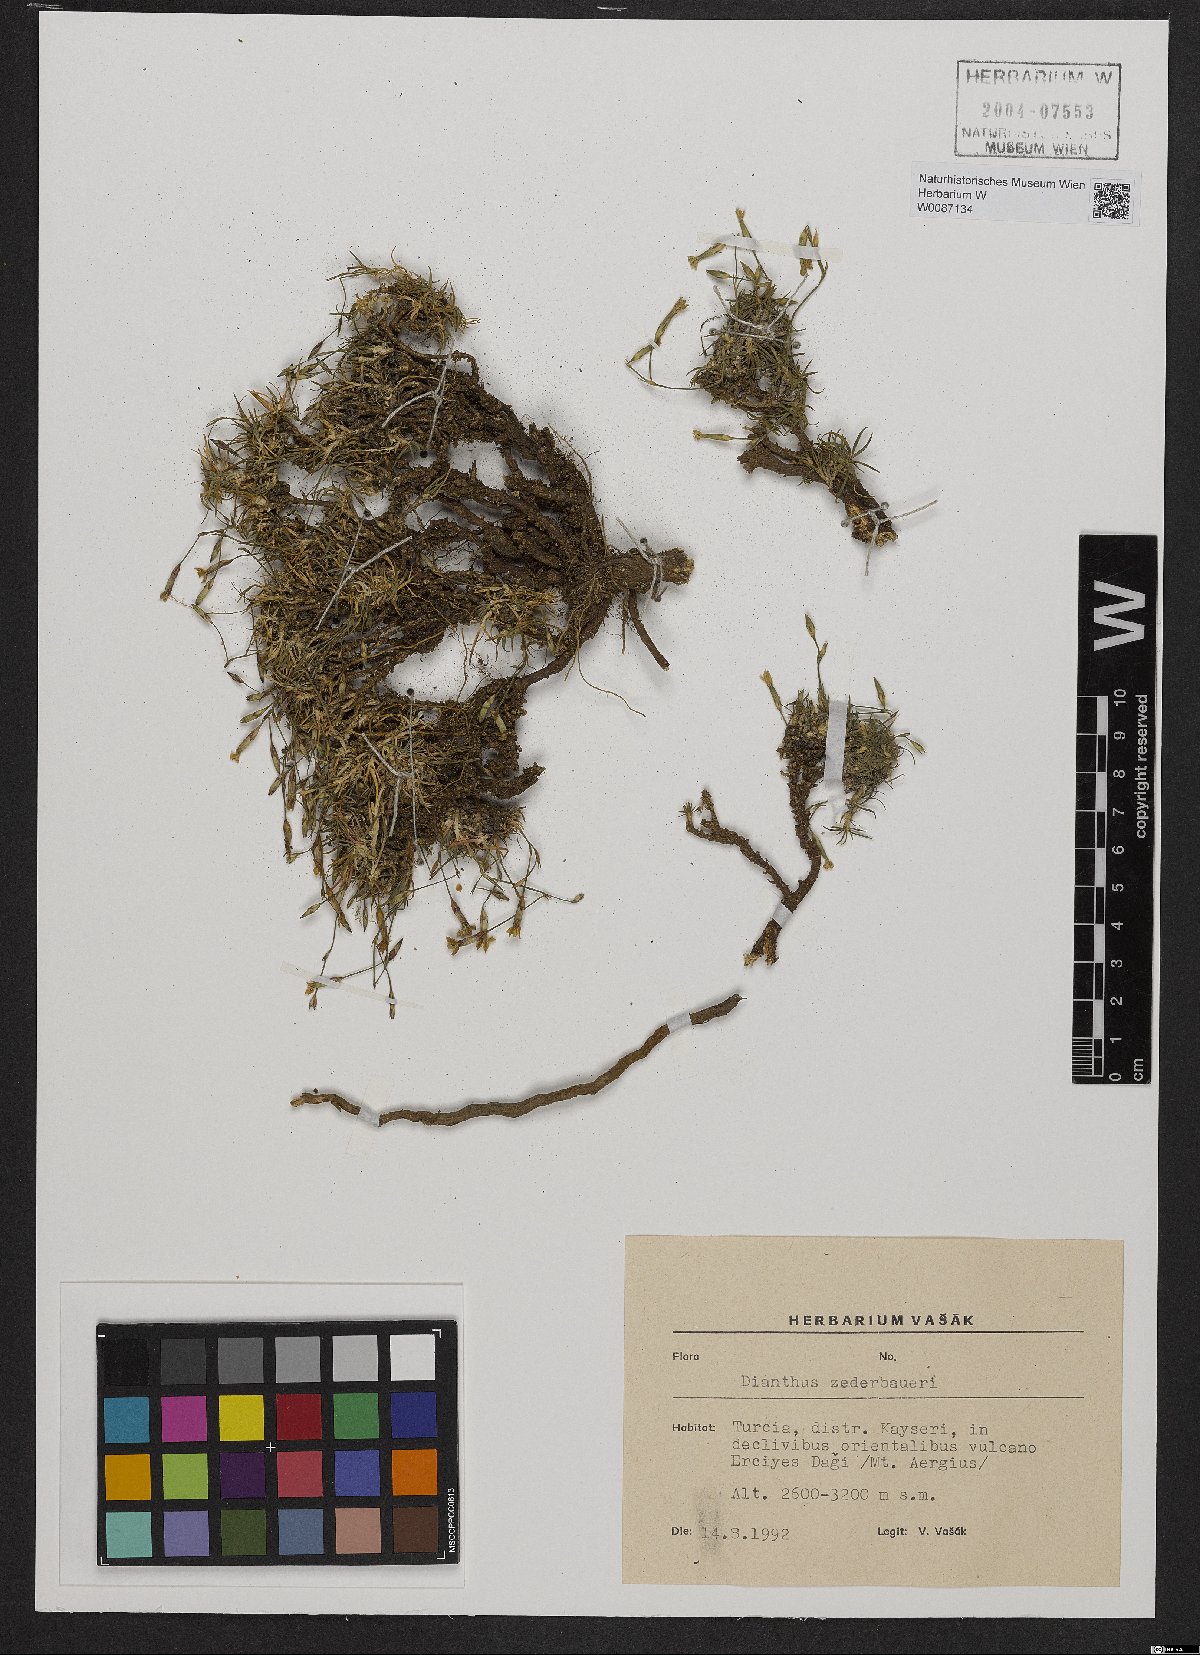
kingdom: Plantae
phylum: Tracheophyta
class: Magnoliopsida
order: Caryophyllales
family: Caryophyllaceae
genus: Dianthus
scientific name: Dianthus zederbaueri
